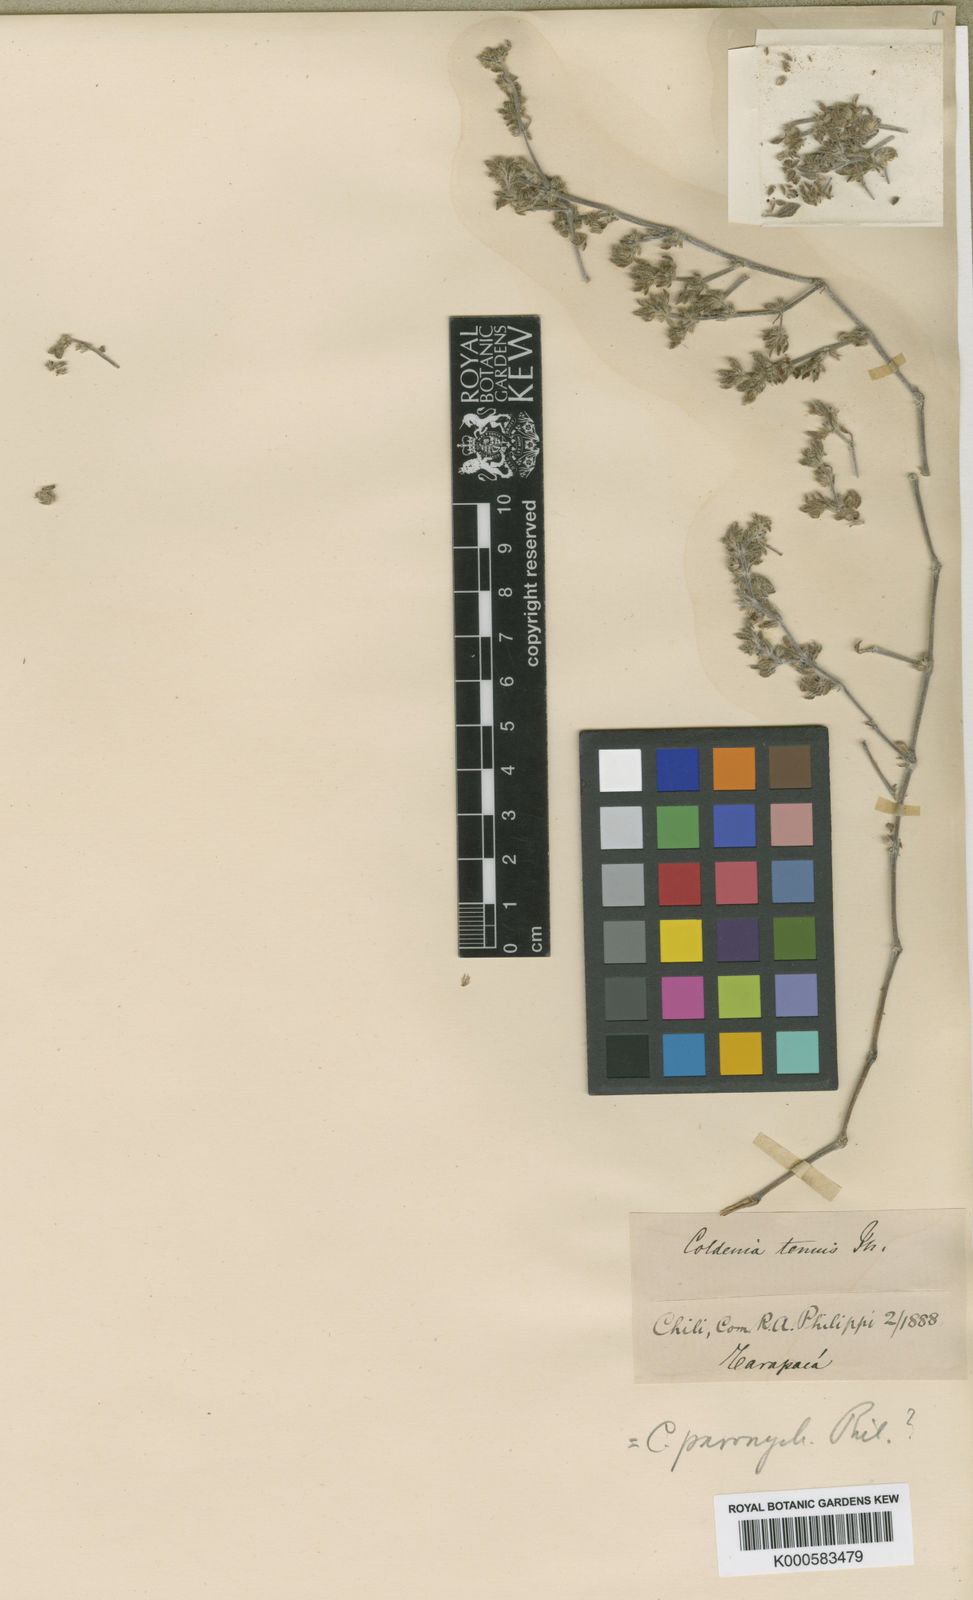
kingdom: Plantae
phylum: Tracheophyta
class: Magnoliopsida
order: Boraginales
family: Ehretiaceae
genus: Tiquilia
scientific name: Tiquilia paronychioides
